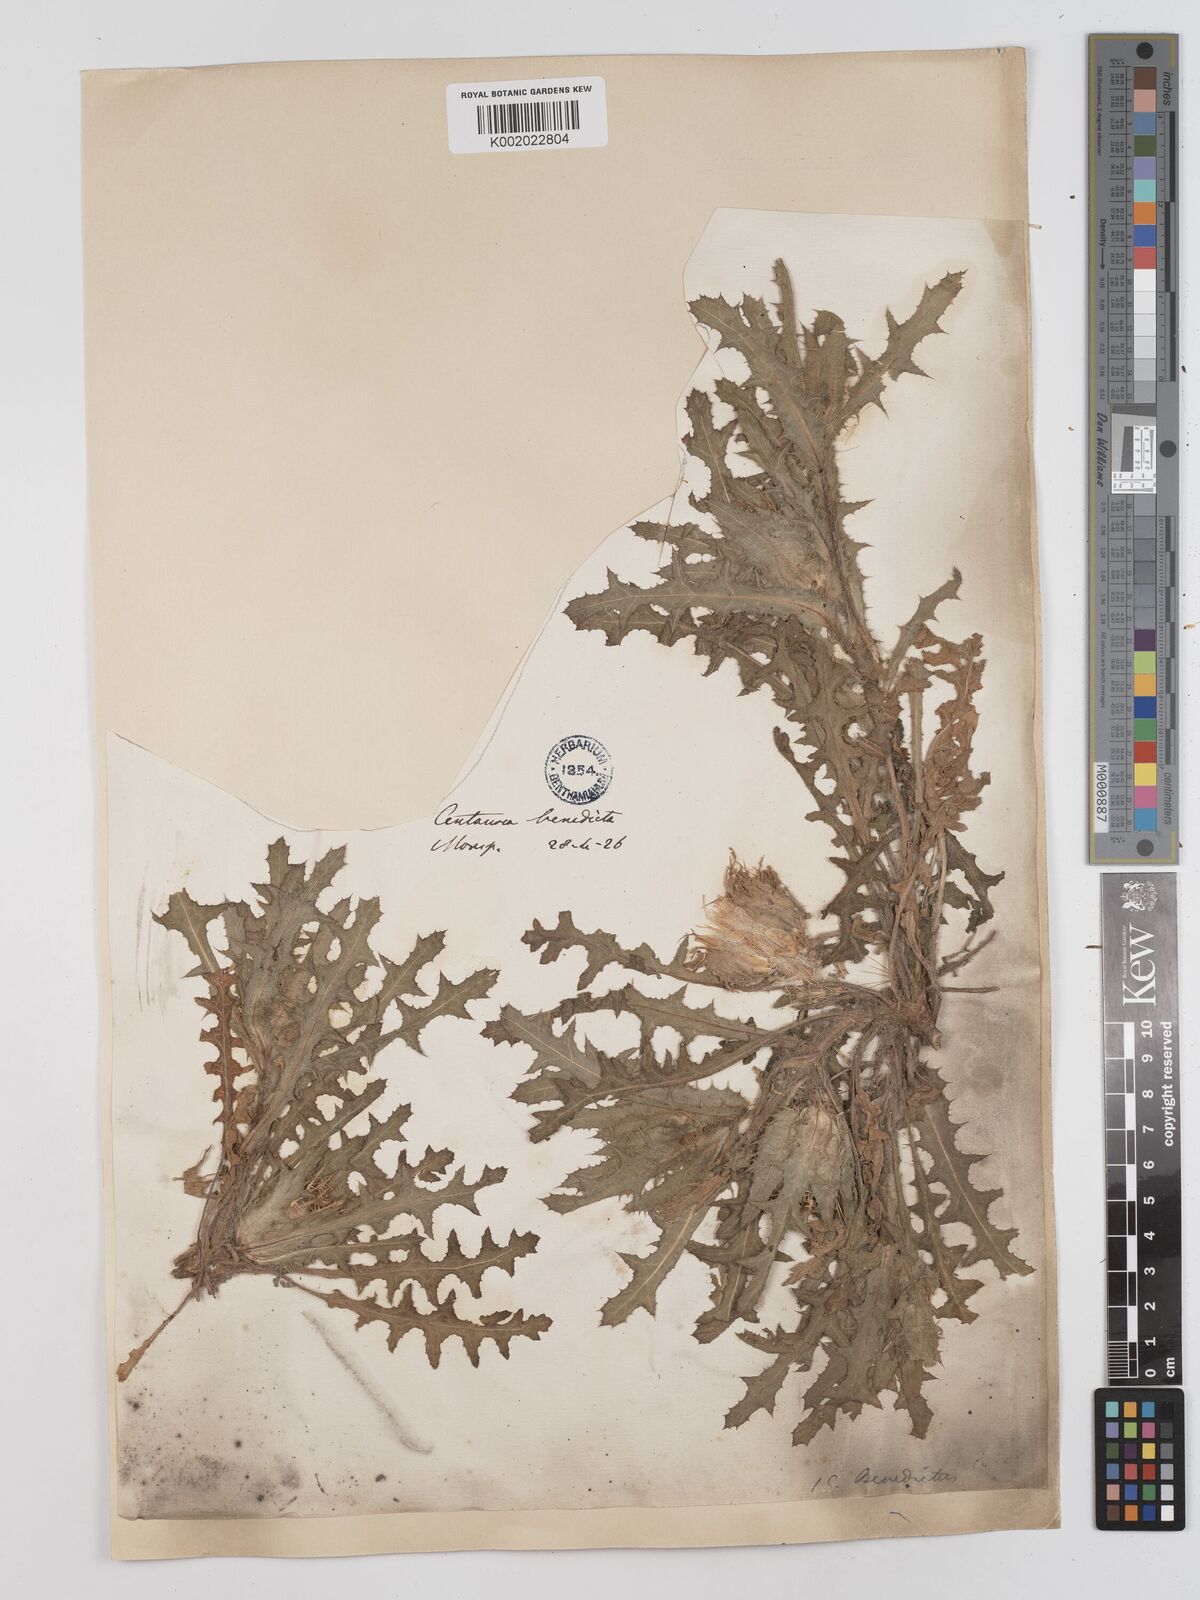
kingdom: Plantae
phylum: Tracheophyta
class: Magnoliopsida
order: Asterales
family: Asteraceae
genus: Cirsium
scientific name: Cirsium acaule
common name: Dwarf thistle
